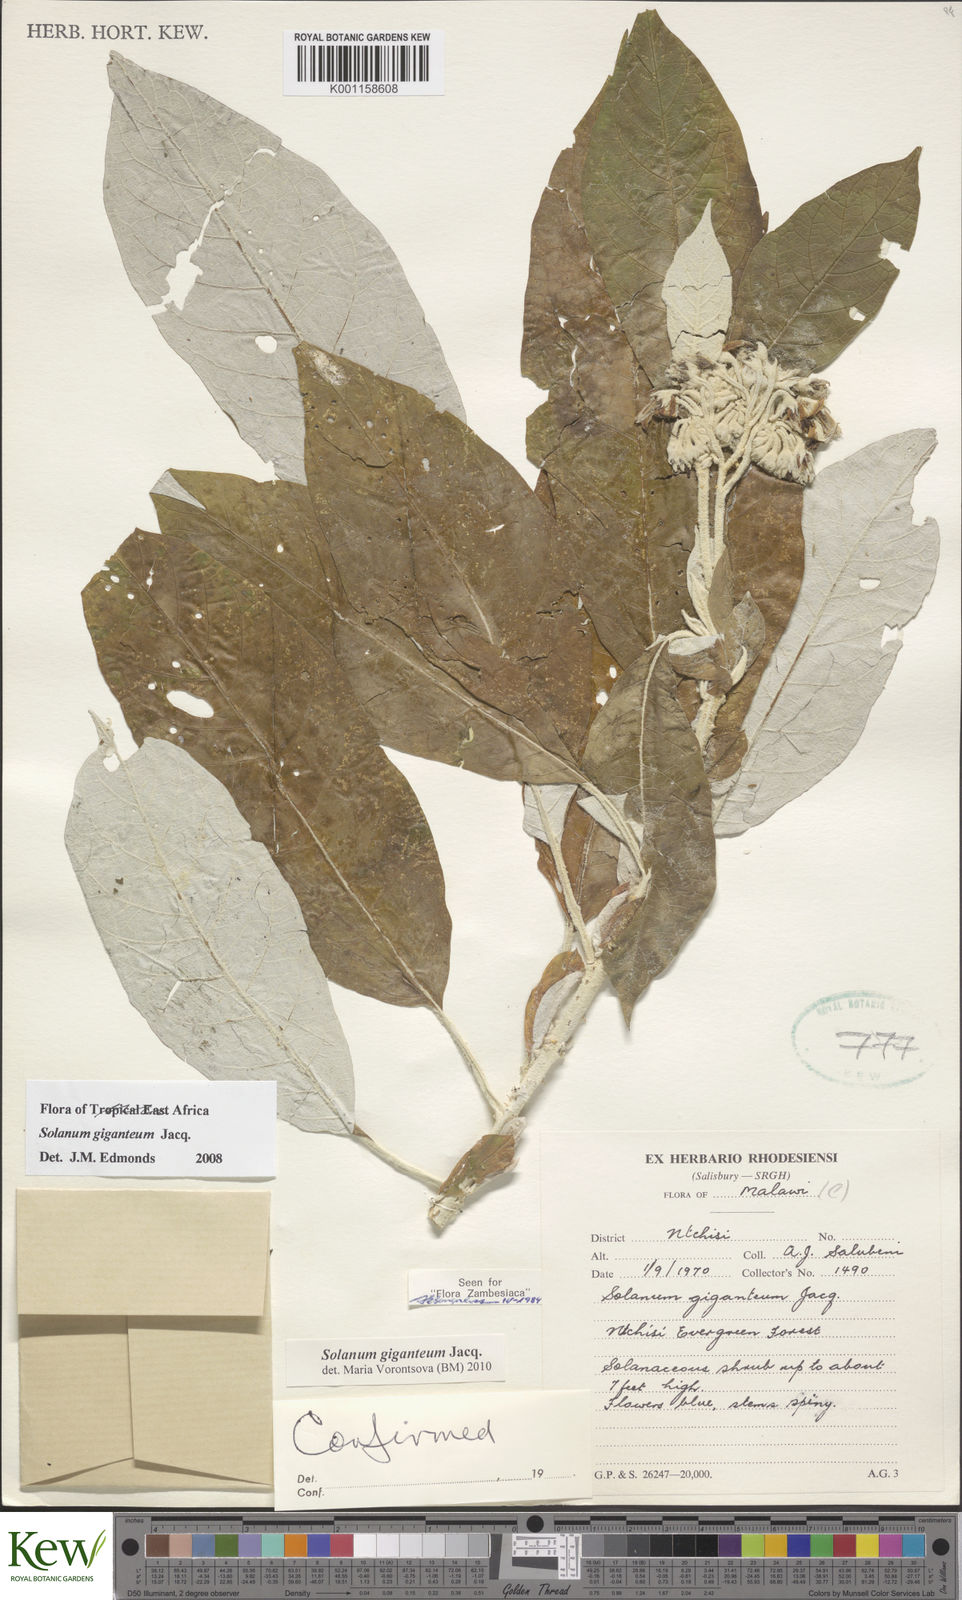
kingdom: Plantae
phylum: Tracheophyta
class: Magnoliopsida
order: Solanales
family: Solanaceae
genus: Solanum
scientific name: Solanum giganteum
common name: Healing-leaf-tree
